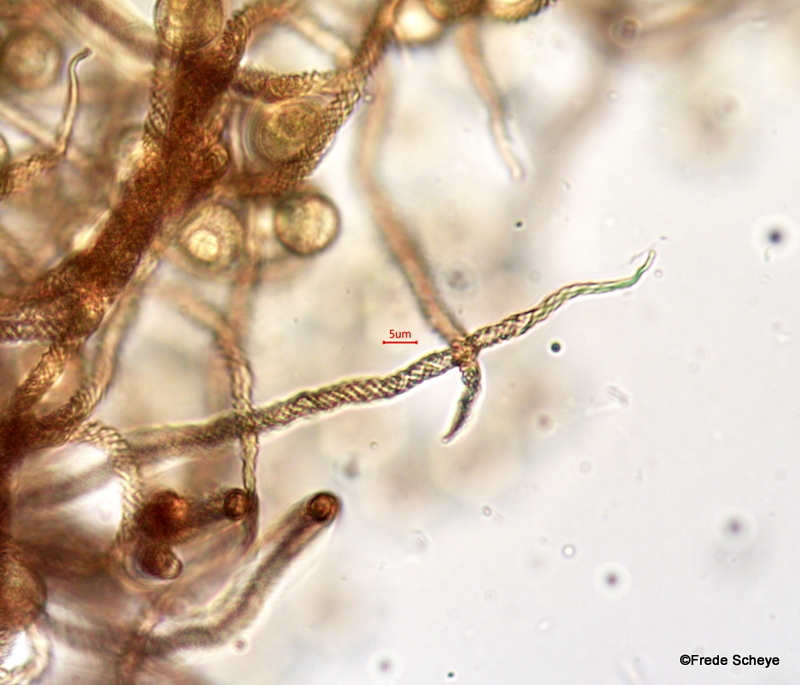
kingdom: Protozoa
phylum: Mycetozoa
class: Myxomycetes
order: Trichiales
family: Trichiaceae
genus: Trichia
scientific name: Trichia contorta
